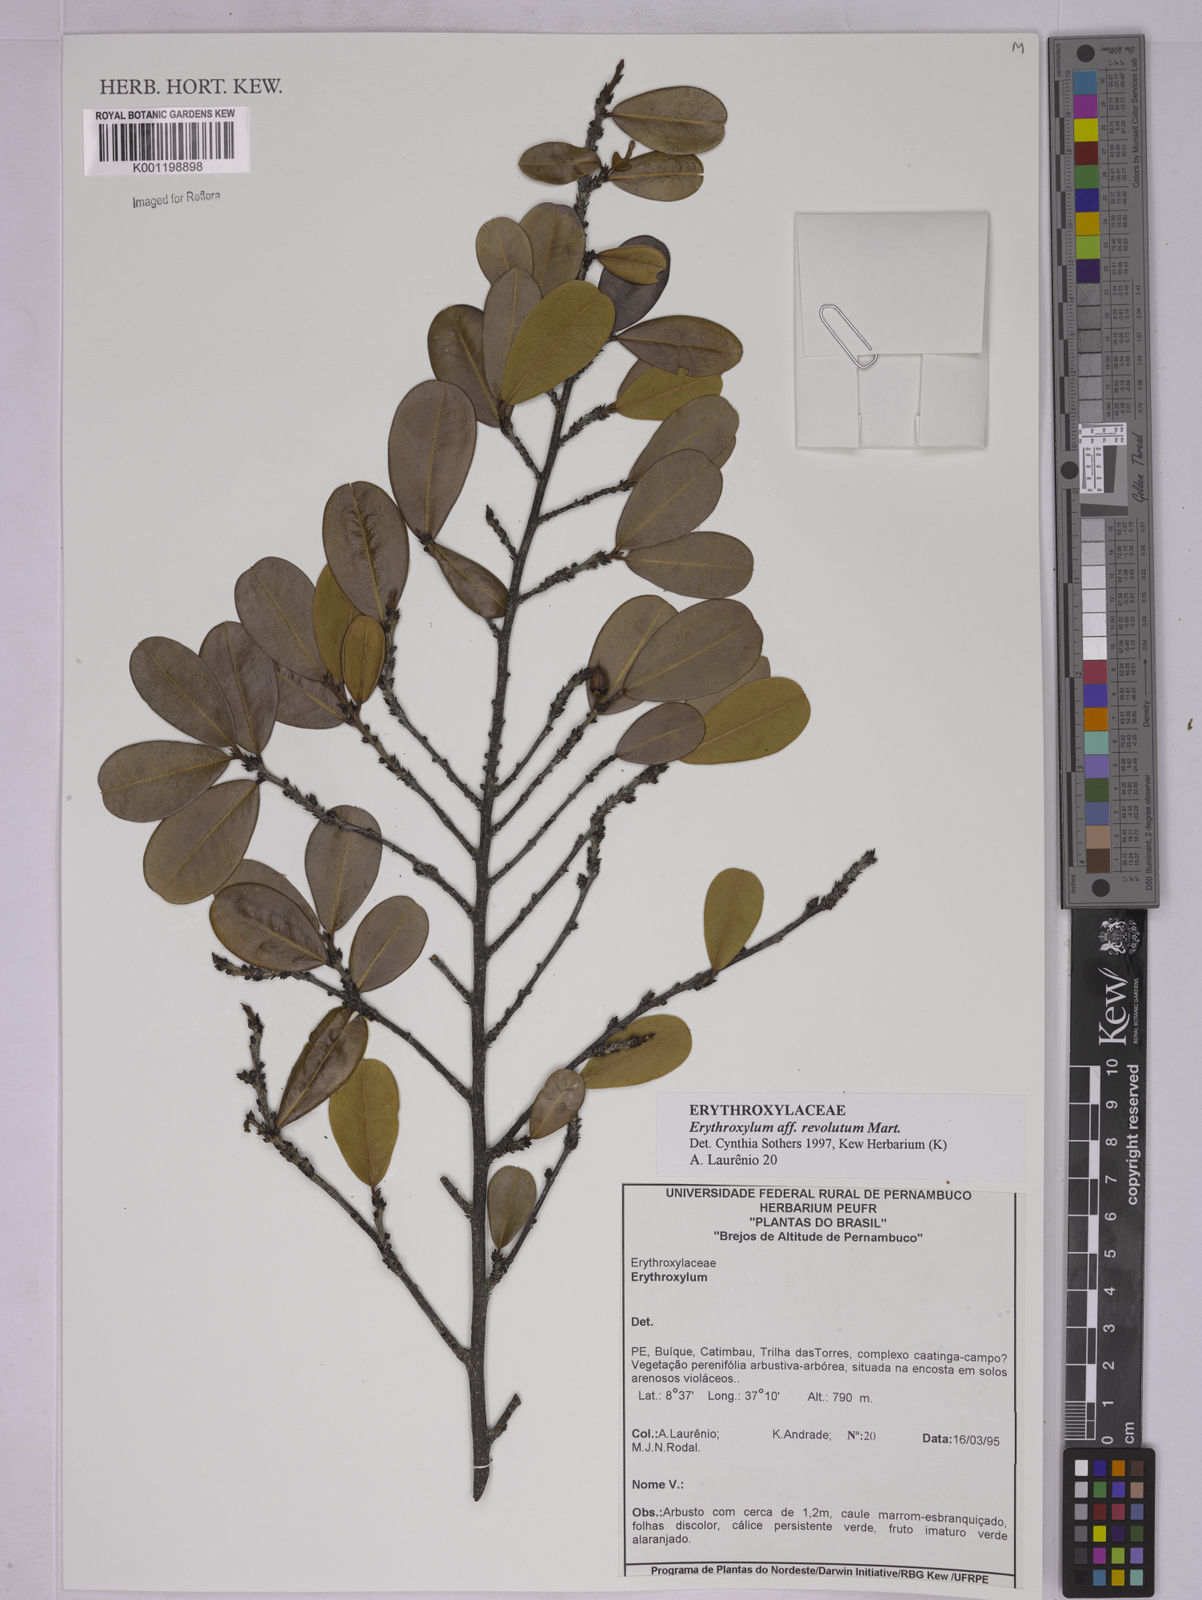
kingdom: Plantae
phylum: Tracheophyta
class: Magnoliopsida
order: Malpighiales
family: Erythroxylaceae
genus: Erythroxylum
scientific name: Erythroxylum revolutum
